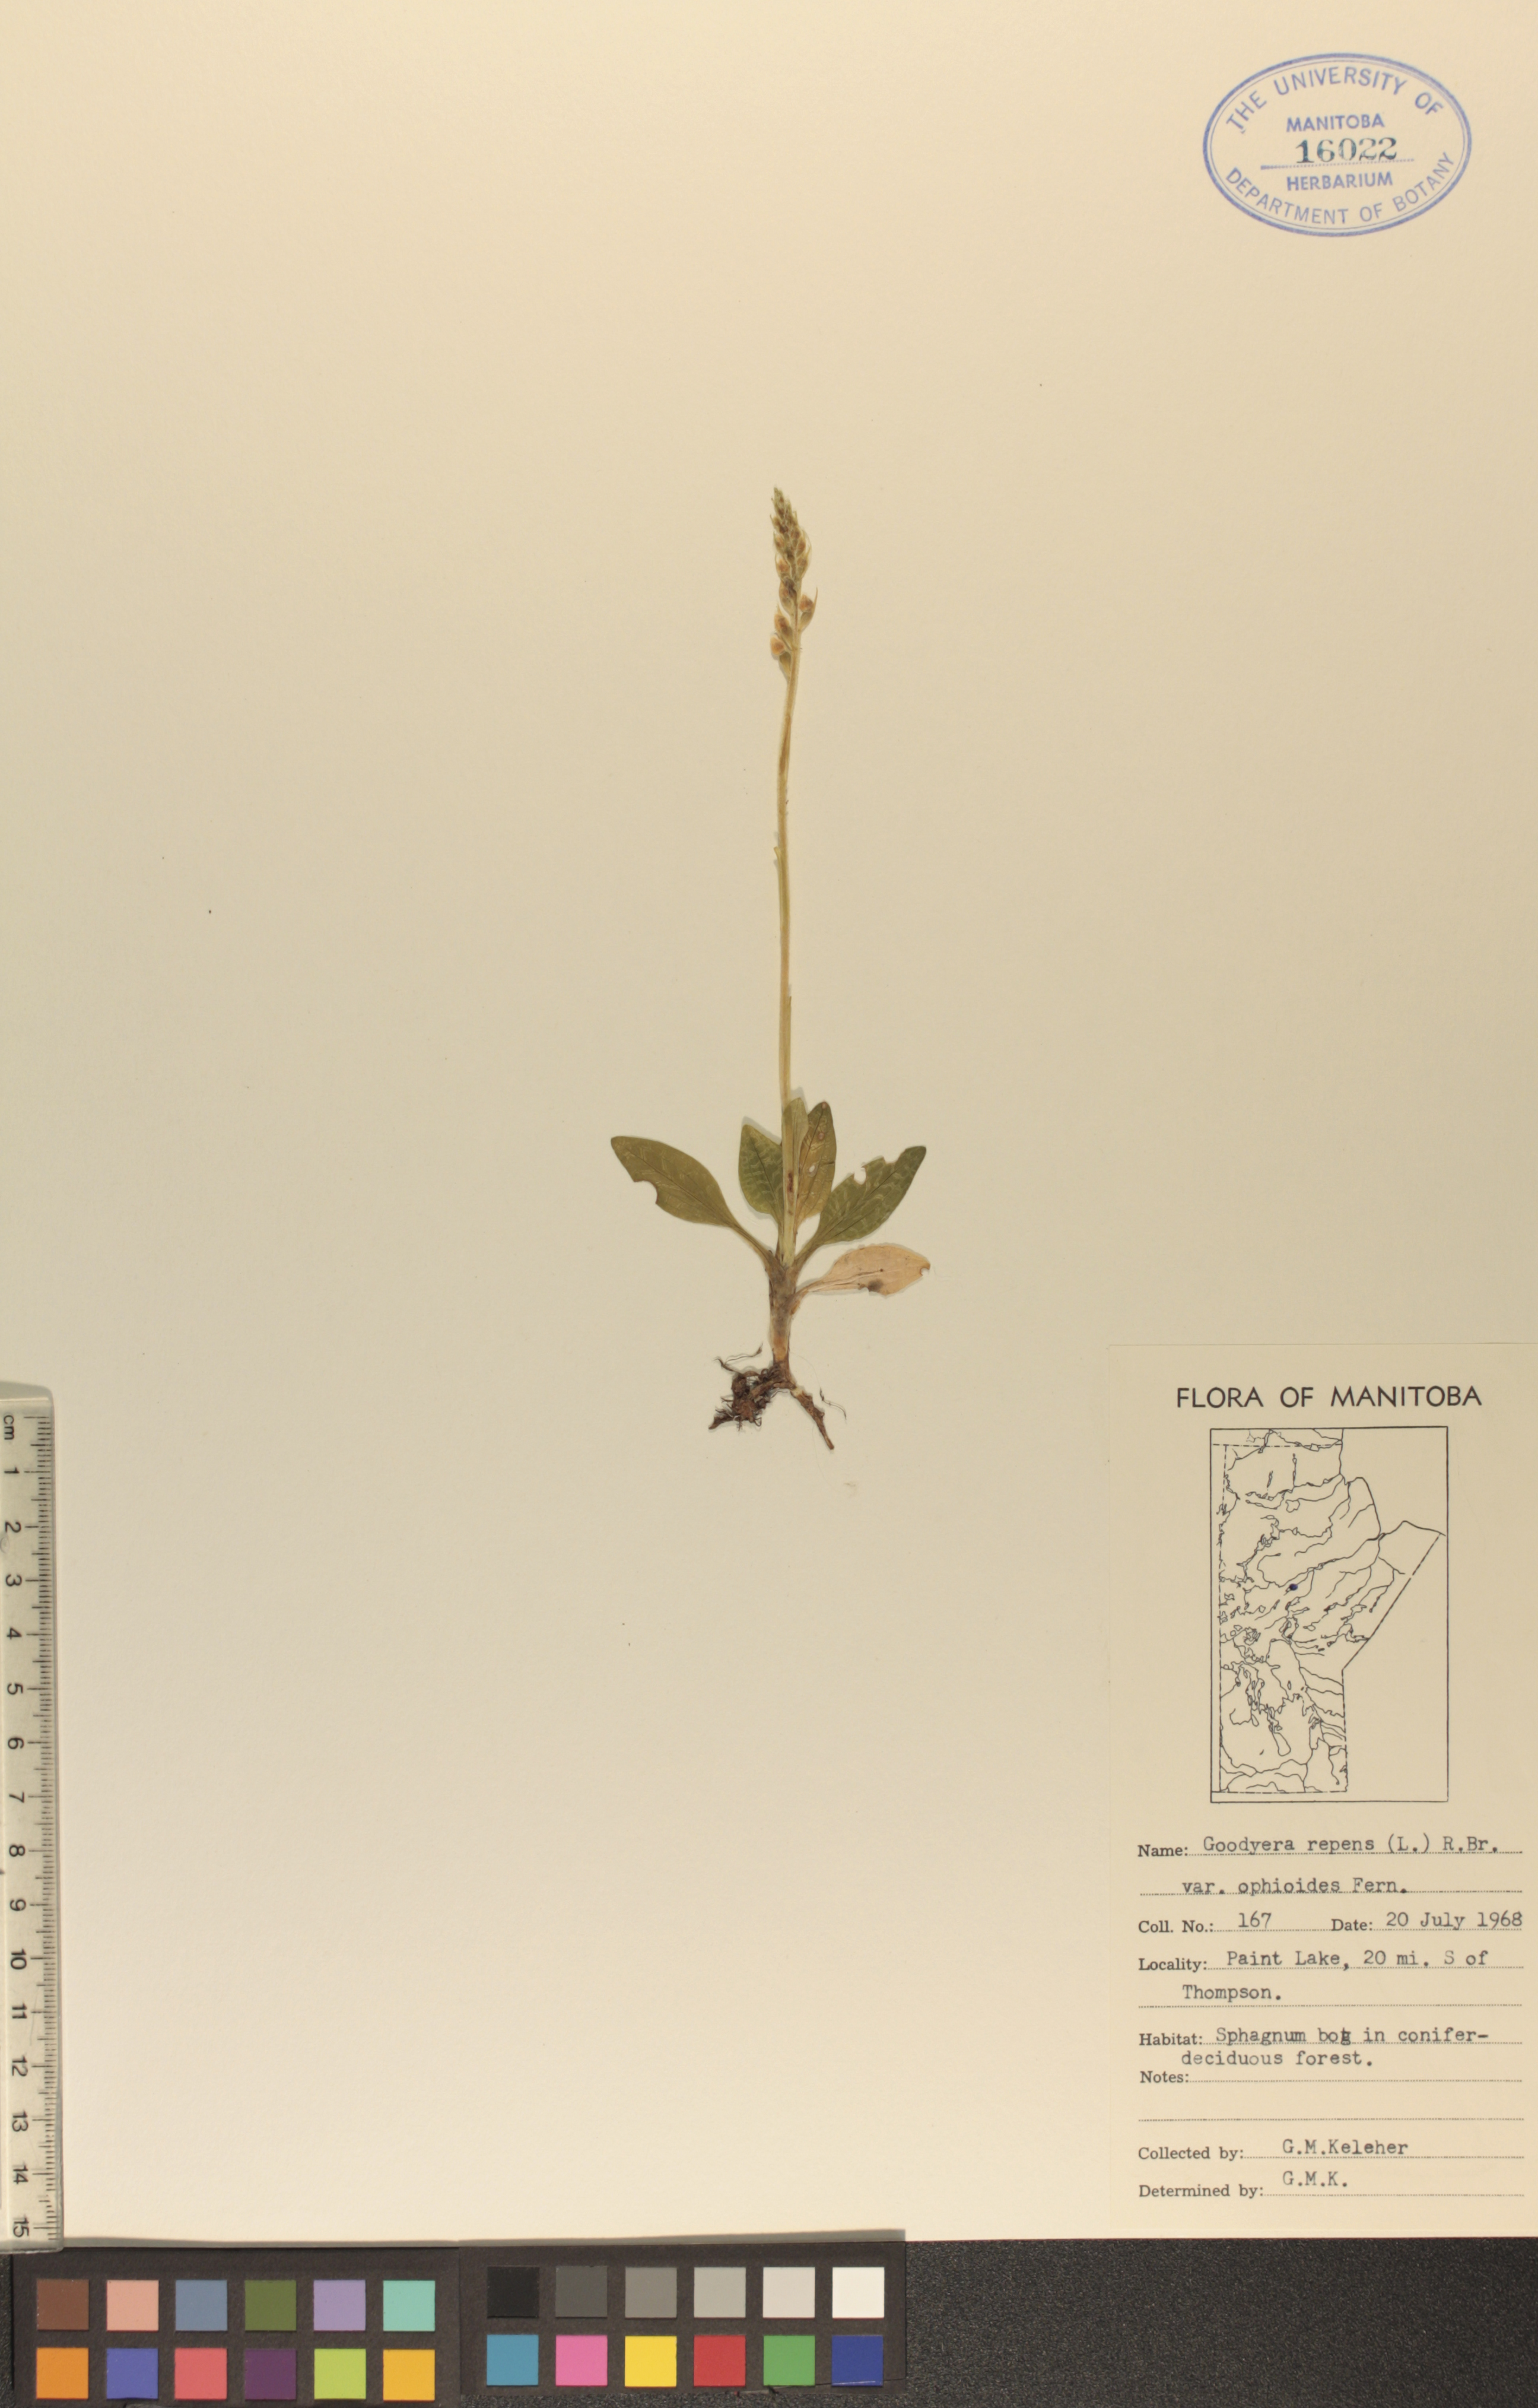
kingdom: Plantae
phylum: Tracheophyta
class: Liliopsida
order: Asparagales
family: Orchidaceae
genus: Goodyera
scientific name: Goodyera repens
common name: Creeping lady's-tresses
